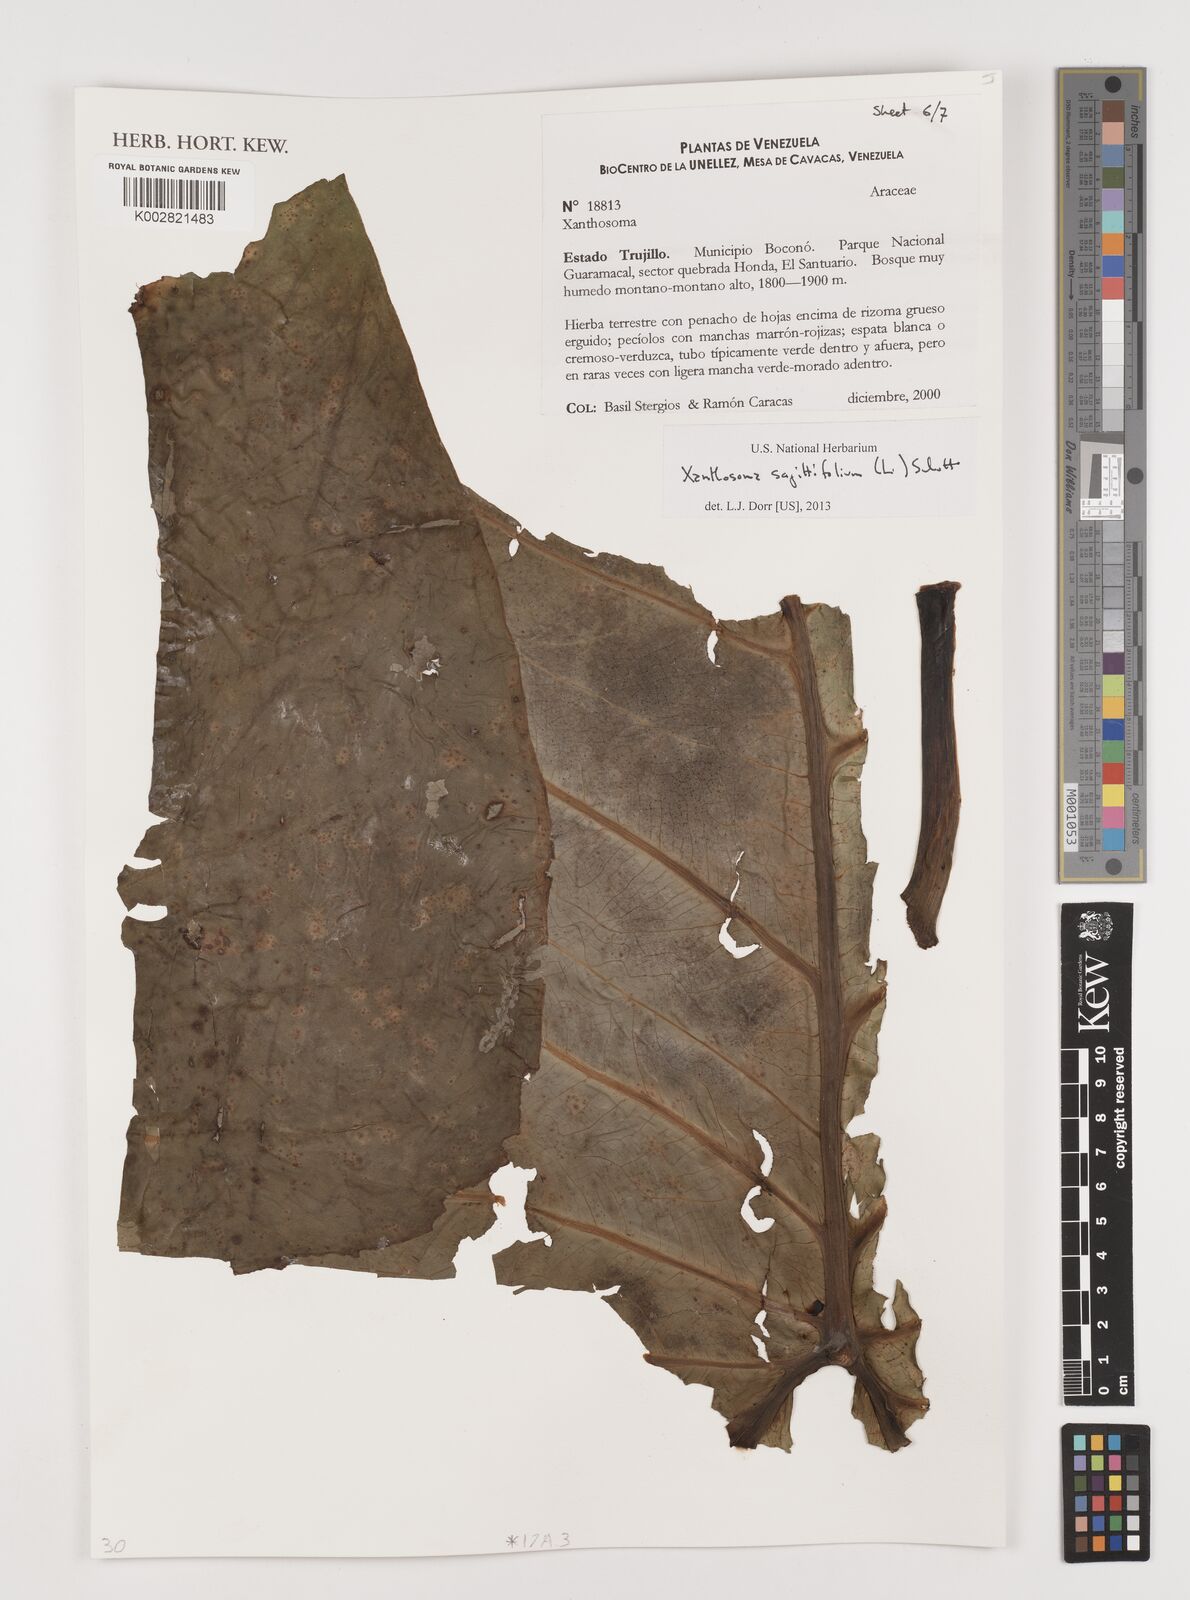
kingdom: Plantae
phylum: Tracheophyta
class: Liliopsida
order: Alismatales
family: Araceae
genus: Xanthosoma
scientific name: Xanthosoma sagittifolium
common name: Arrowleaf elephant's ear
